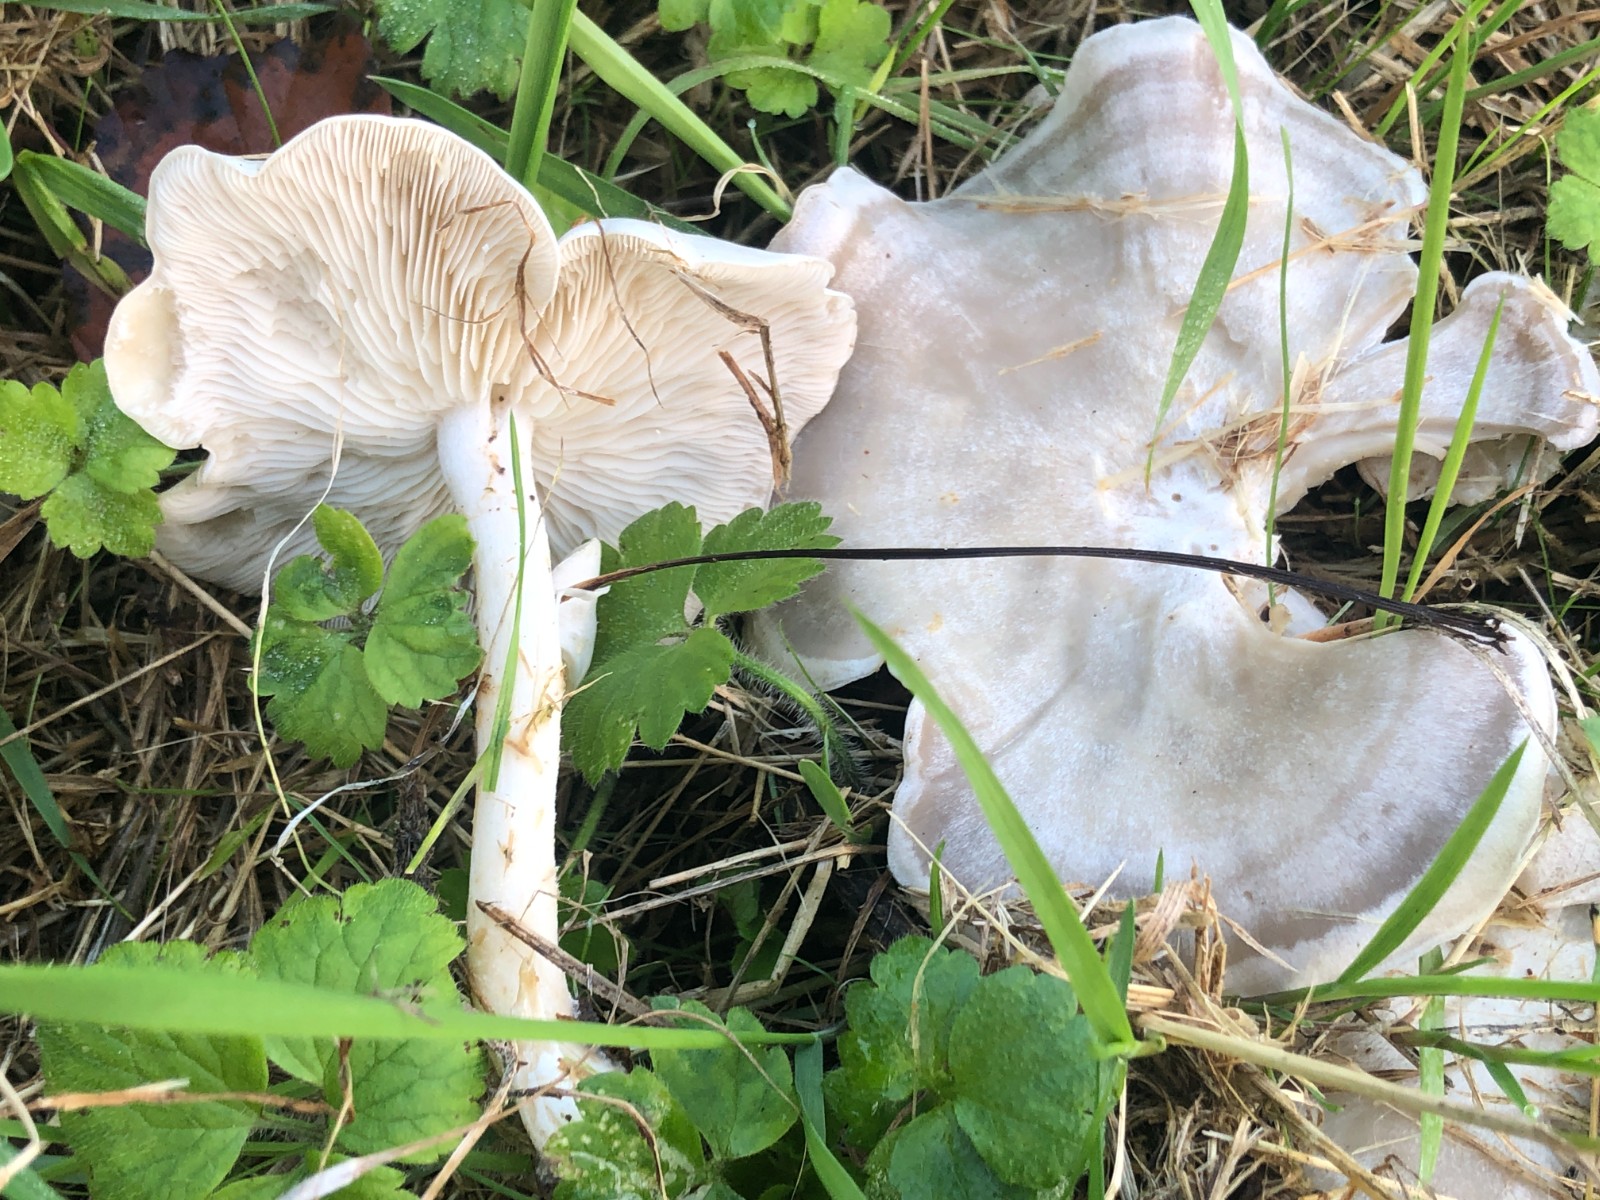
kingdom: Fungi
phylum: Basidiomycota
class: Agaricomycetes
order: Agaricales
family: Tricholomataceae
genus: Clitocybe
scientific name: Clitocybe rivulosa
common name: eng-tragthat
